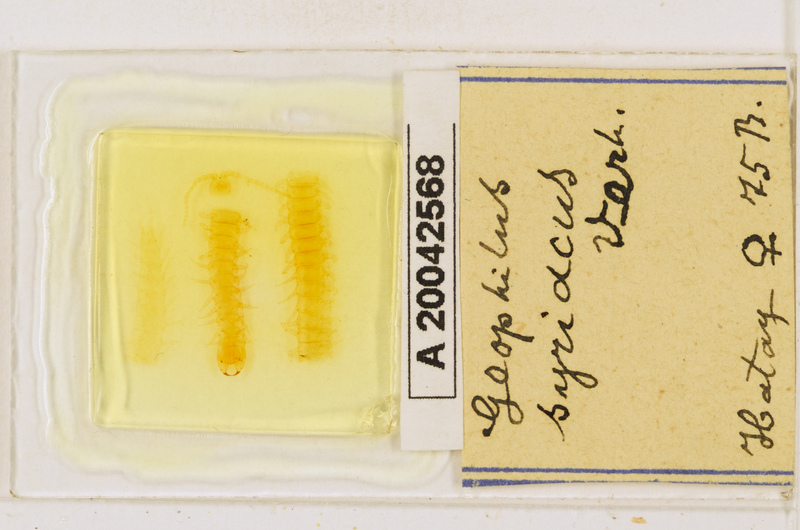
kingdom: Animalia
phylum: Arthropoda
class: Chilopoda
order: Geophilomorpha
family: Geophilidae
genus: Pachymerium
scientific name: Pachymerium syriacum
